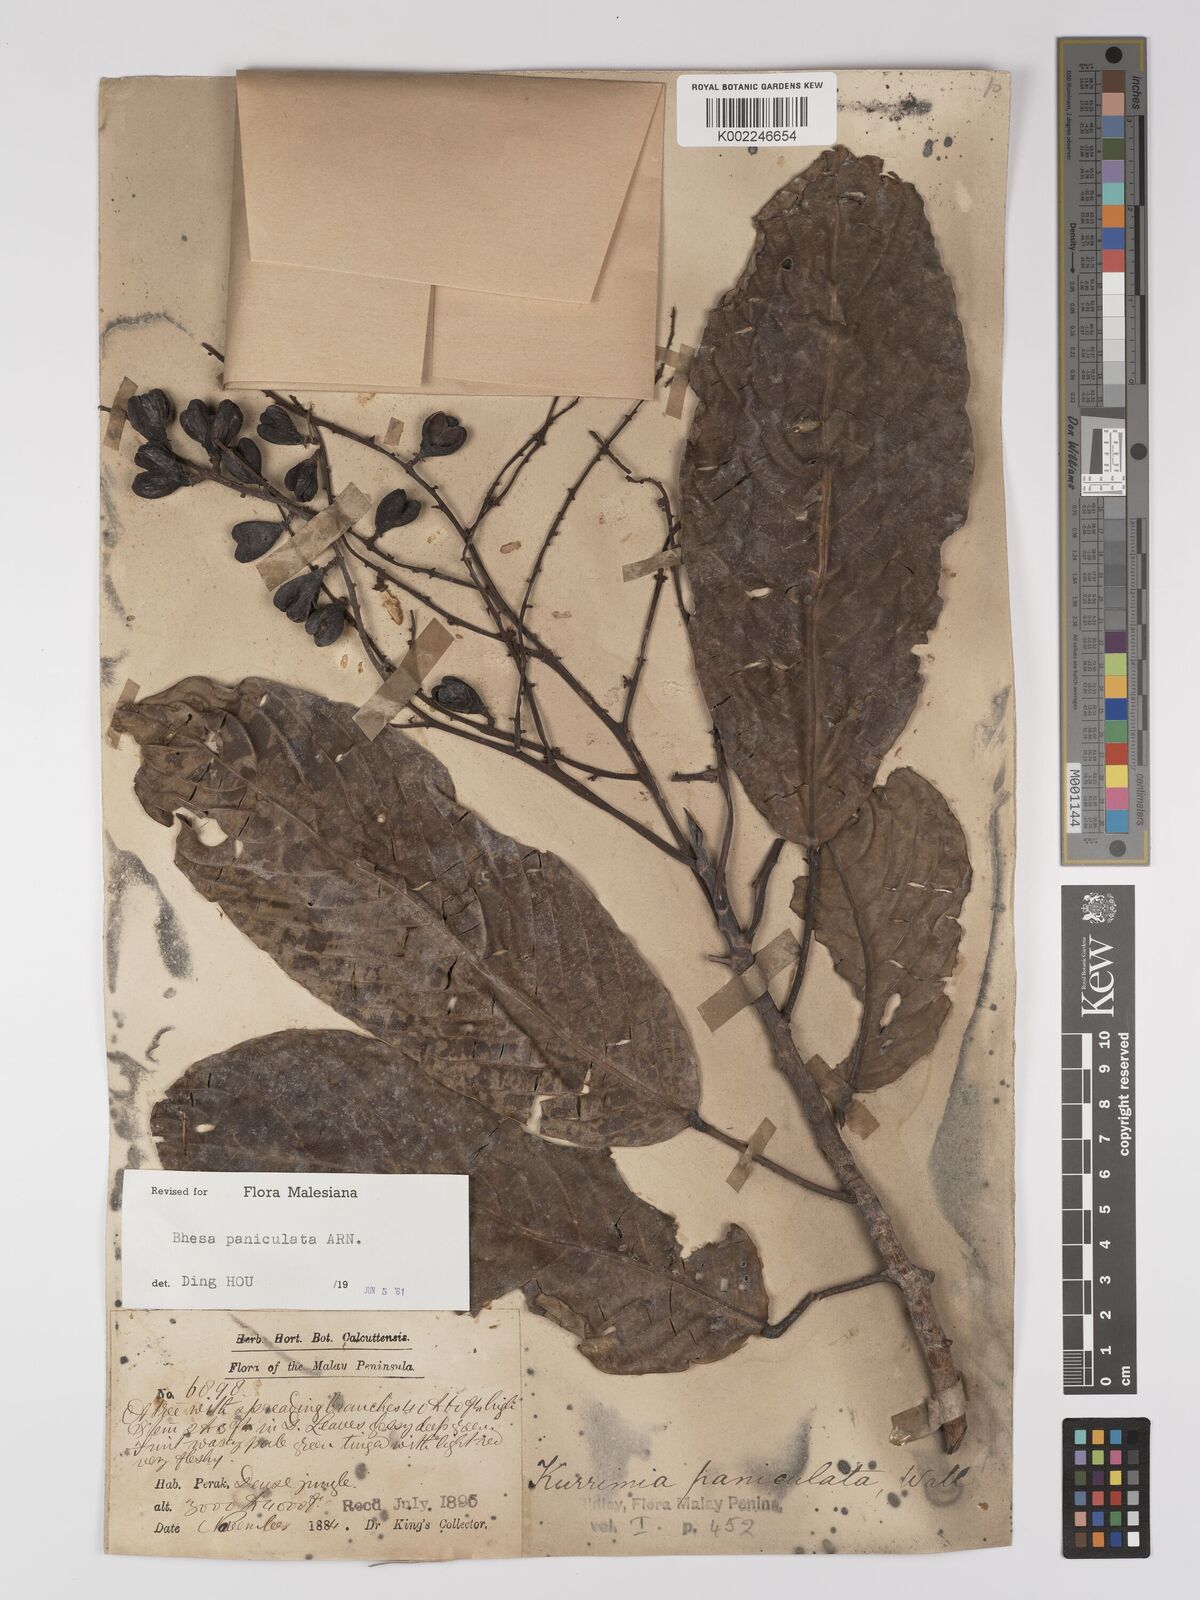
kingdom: Plantae
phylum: Tracheophyta
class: Magnoliopsida
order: Malpighiales
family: Centroplacaceae
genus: Bhesa
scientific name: Bhesa paniculata
